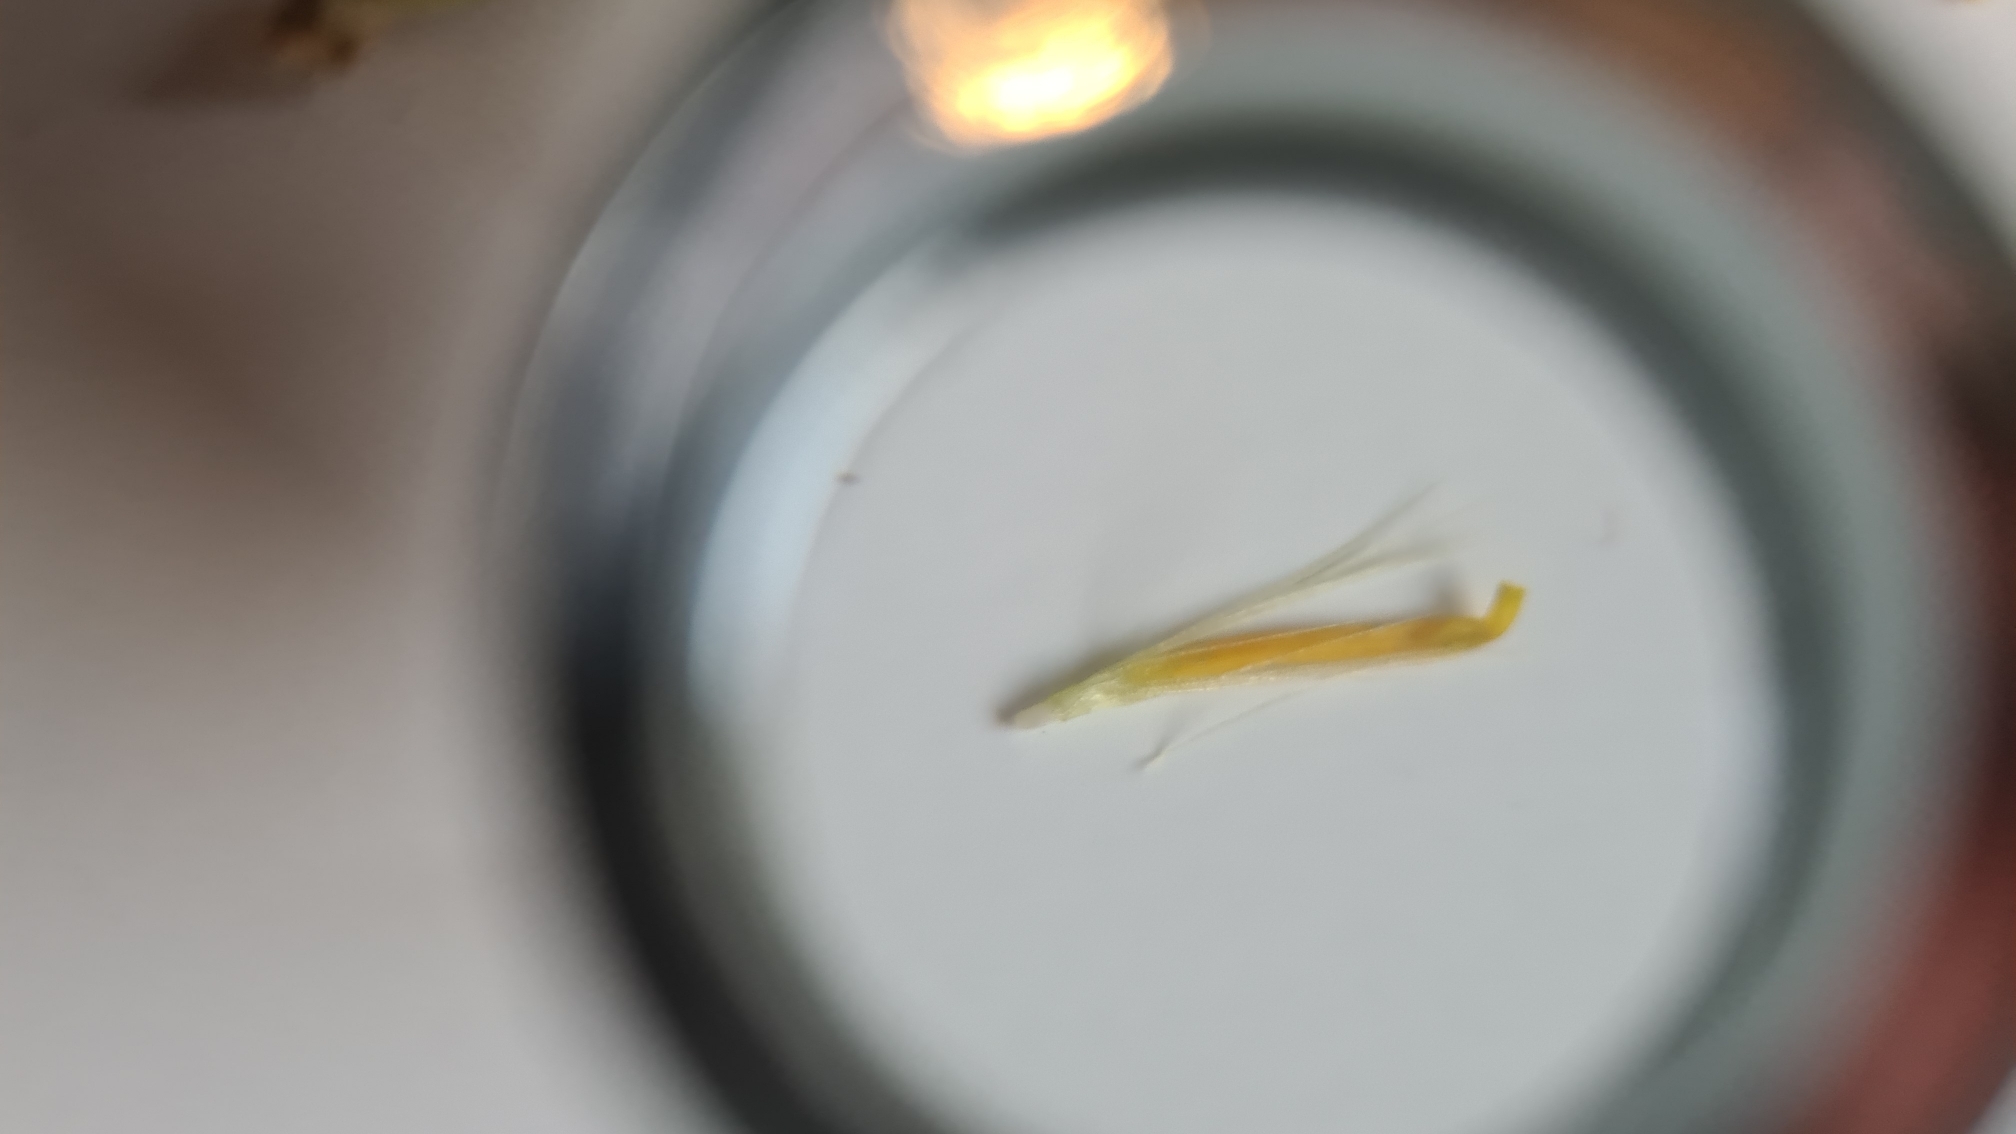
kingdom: Plantae
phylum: Tracheophyta
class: Magnoliopsida
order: Asterales
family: Asteraceae
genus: Scorzoneroides
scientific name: Scorzoneroides autumnalis
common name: Høst-borst
